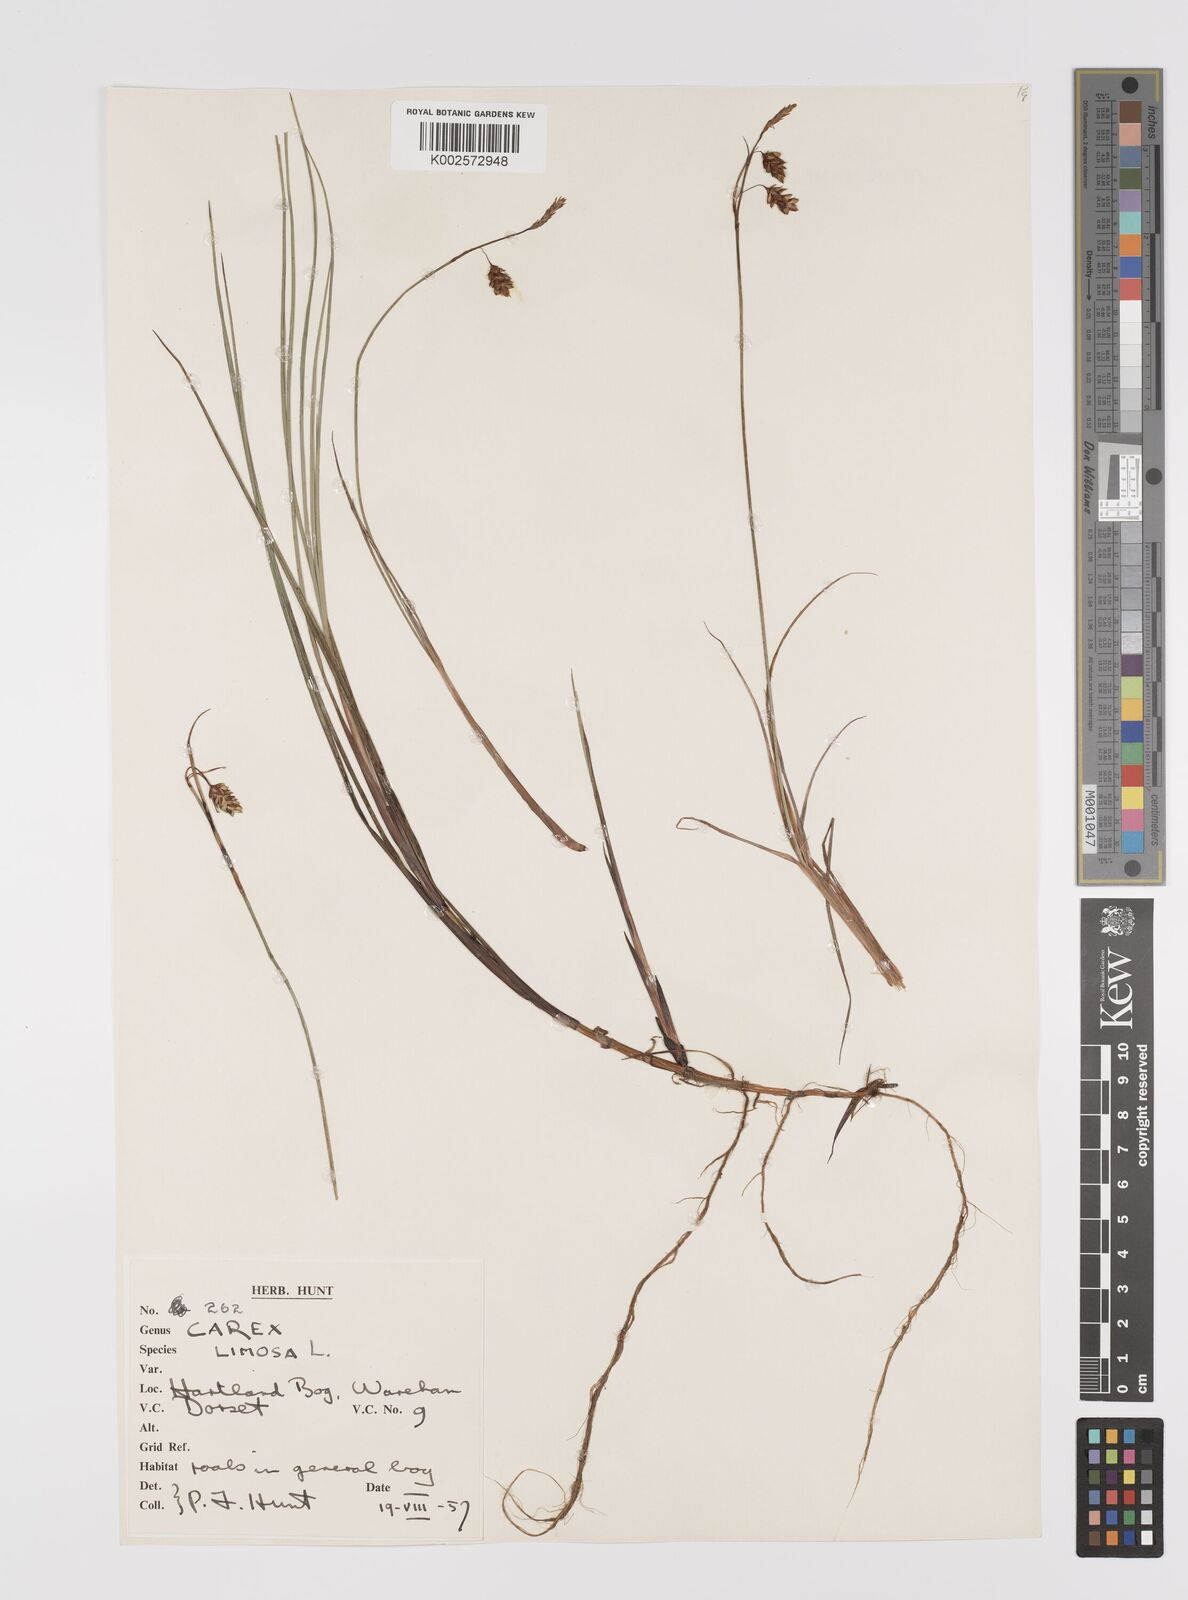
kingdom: Plantae
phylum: Tracheophyta
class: Liliopsida
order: Poales
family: Cyperaceae
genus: Carex
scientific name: Carex limosa
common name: Bog sedge
